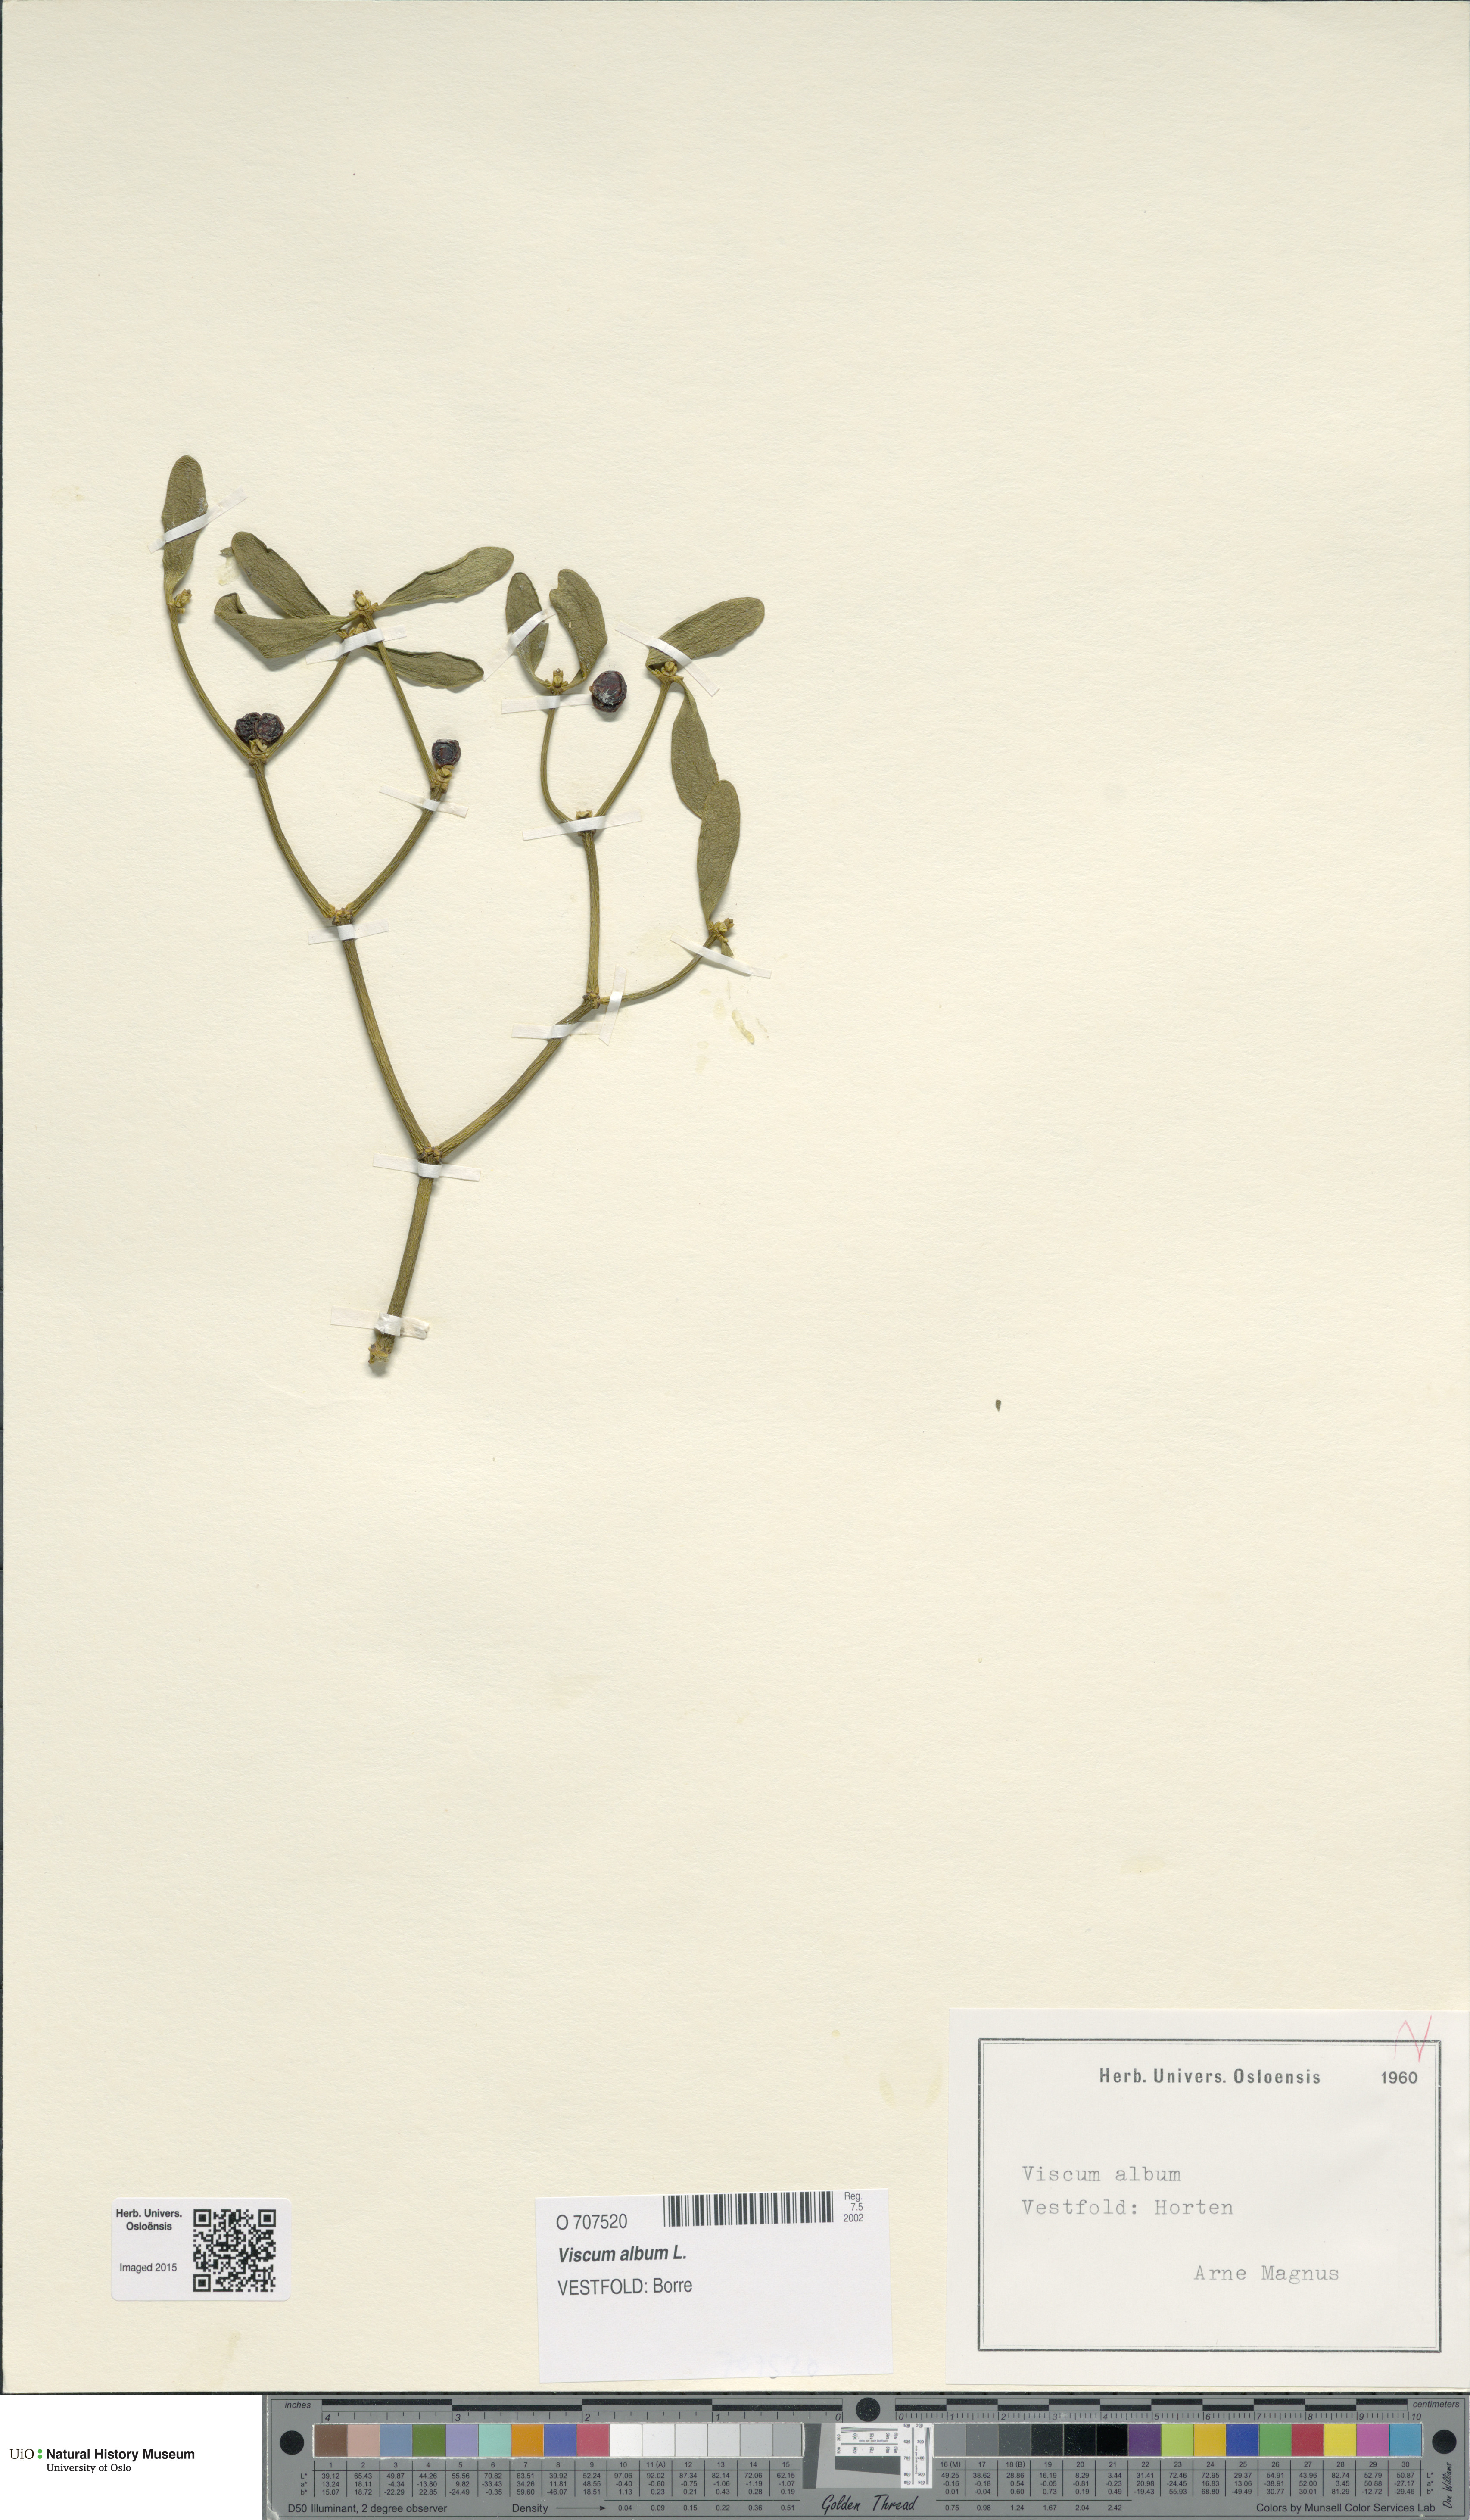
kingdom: Plantae
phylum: Tracheophyta
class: Magnoliopsida
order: Santalales
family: Viscaceae
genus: Viscum
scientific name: Viscum album
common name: Mistletoe
